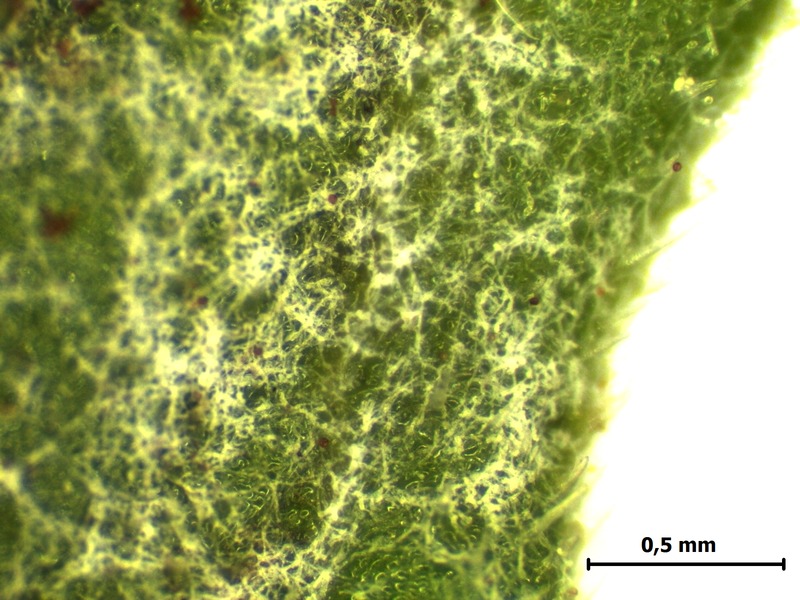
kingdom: Fungi
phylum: Ascomycota
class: Leotiomycetes
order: Helotiales
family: Erysiphaceae
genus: Golovinomyces
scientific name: Golovinomyces valerianae
